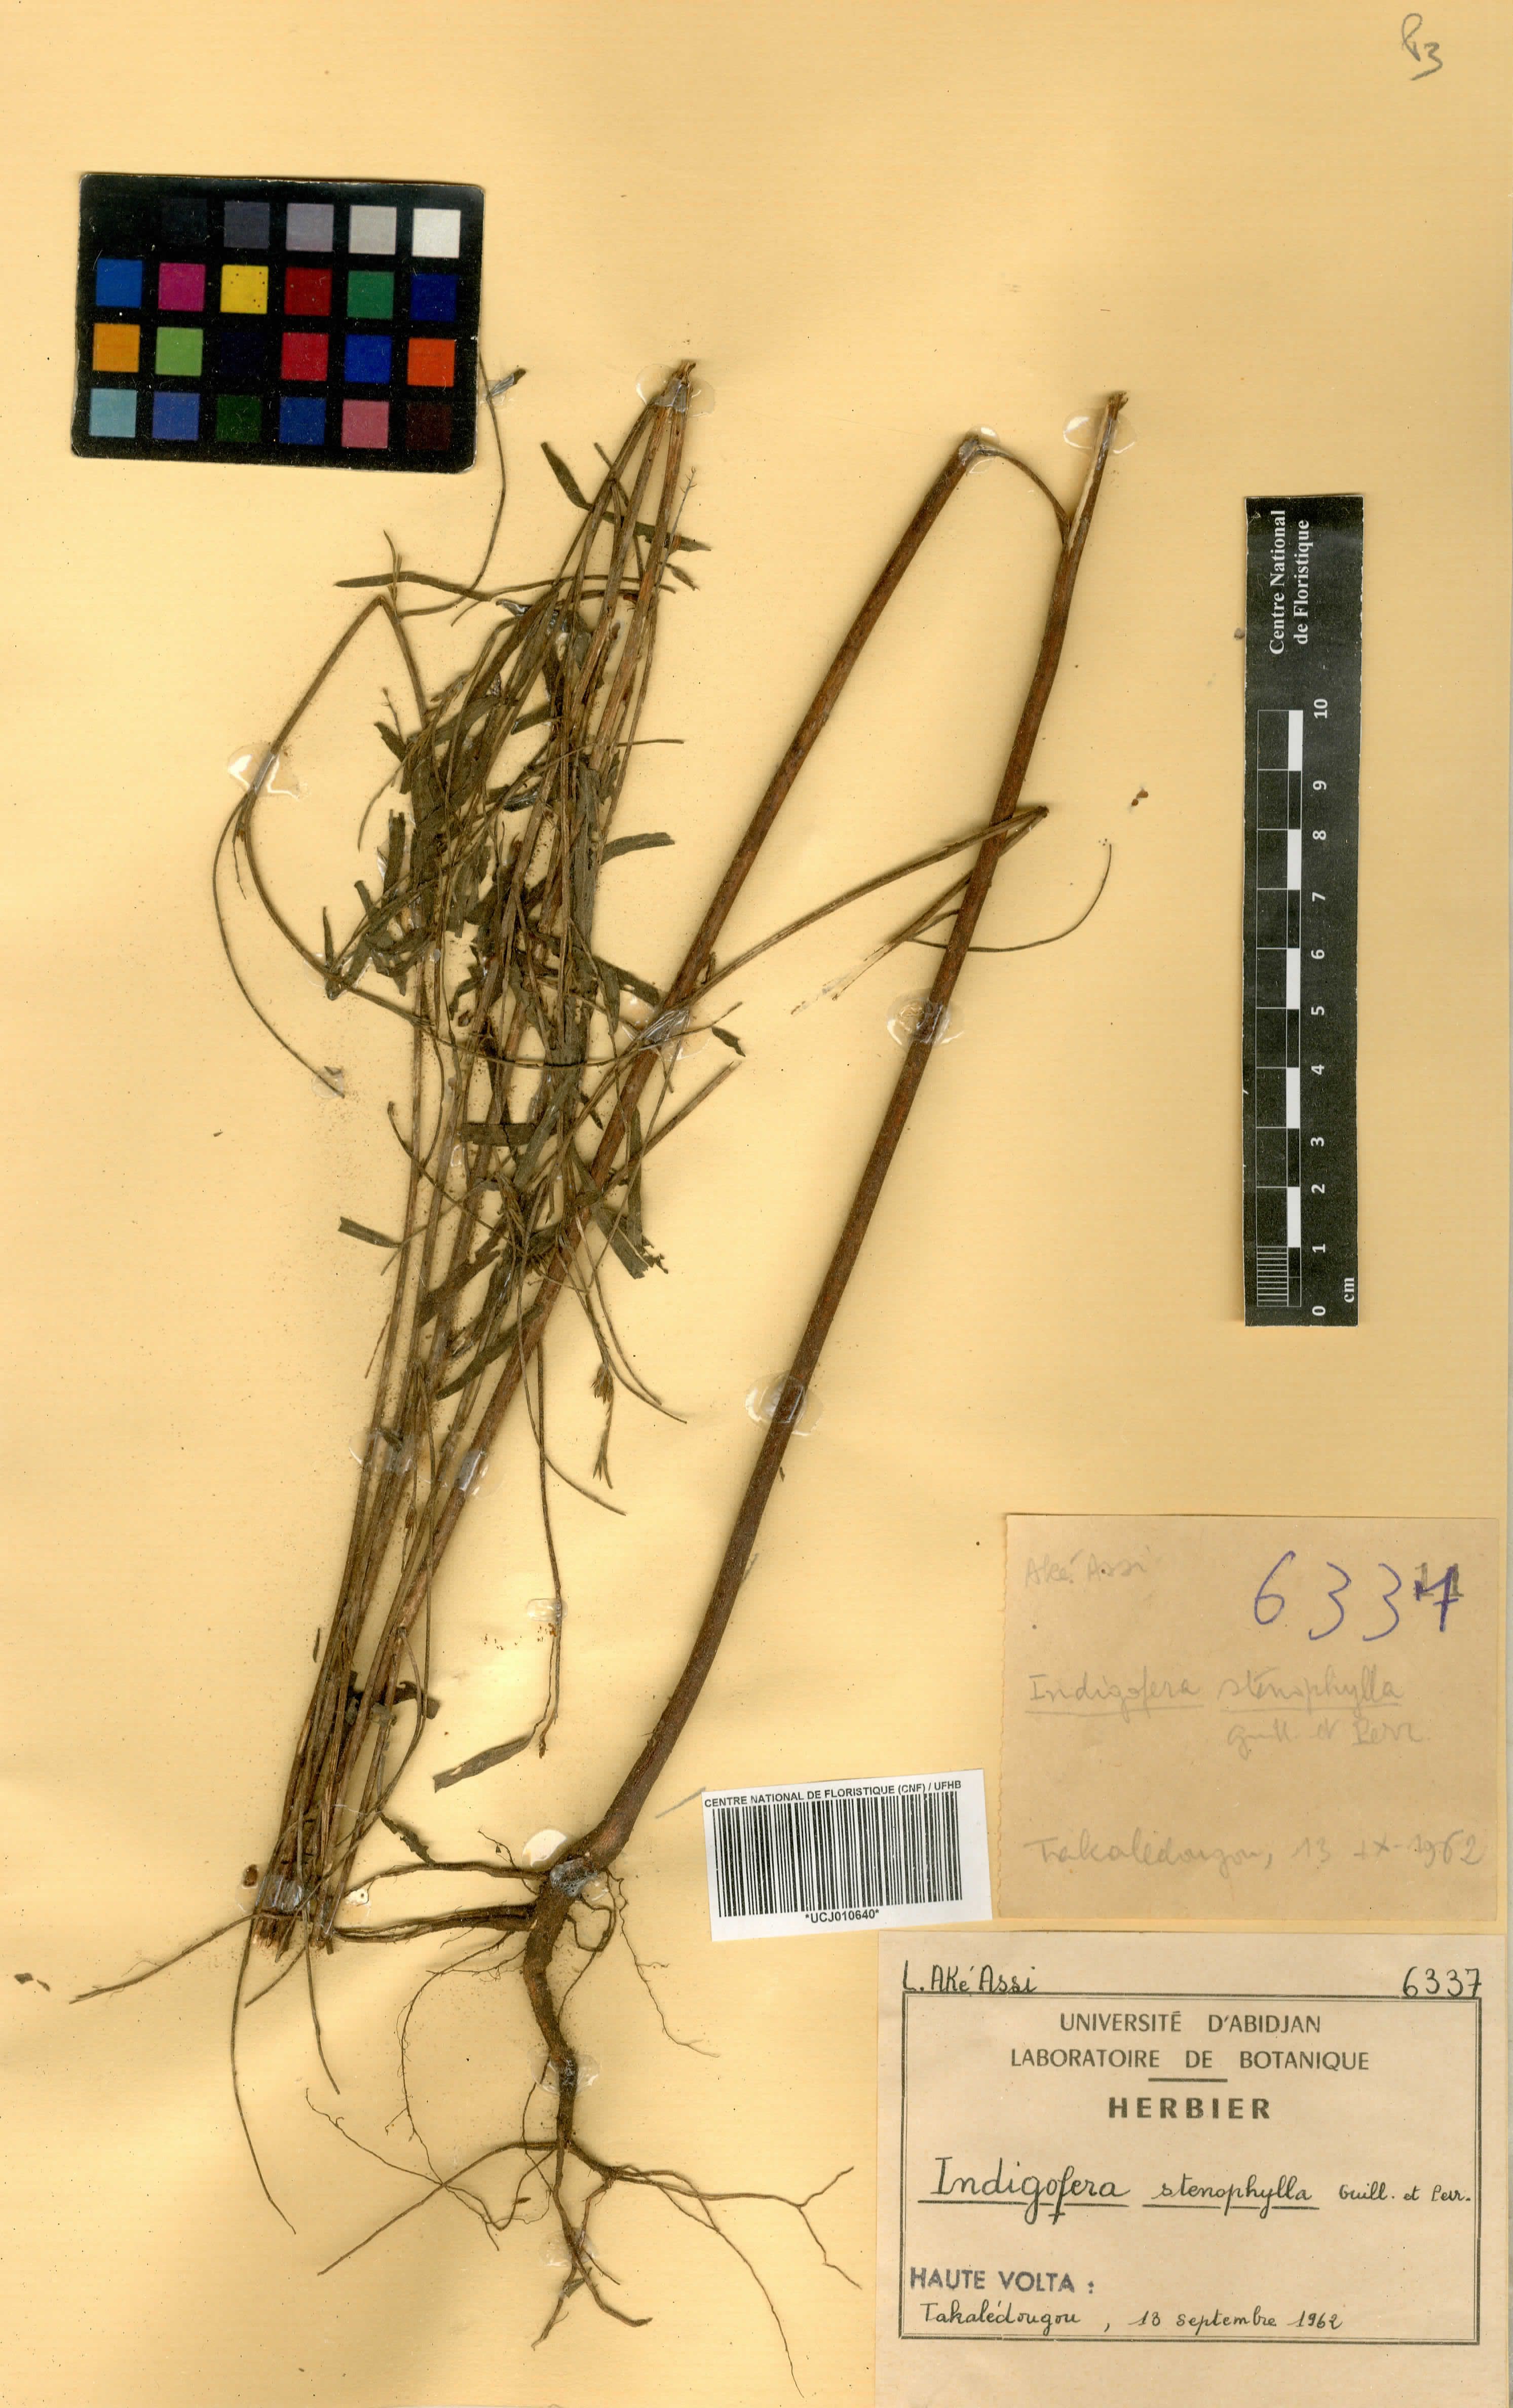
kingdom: Plantae
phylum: Tracheophyta
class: Magnoliopsida
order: Fabales
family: Fabaceae
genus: Indigofera
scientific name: Indigofera suffruticosa
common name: Anil de pasto
